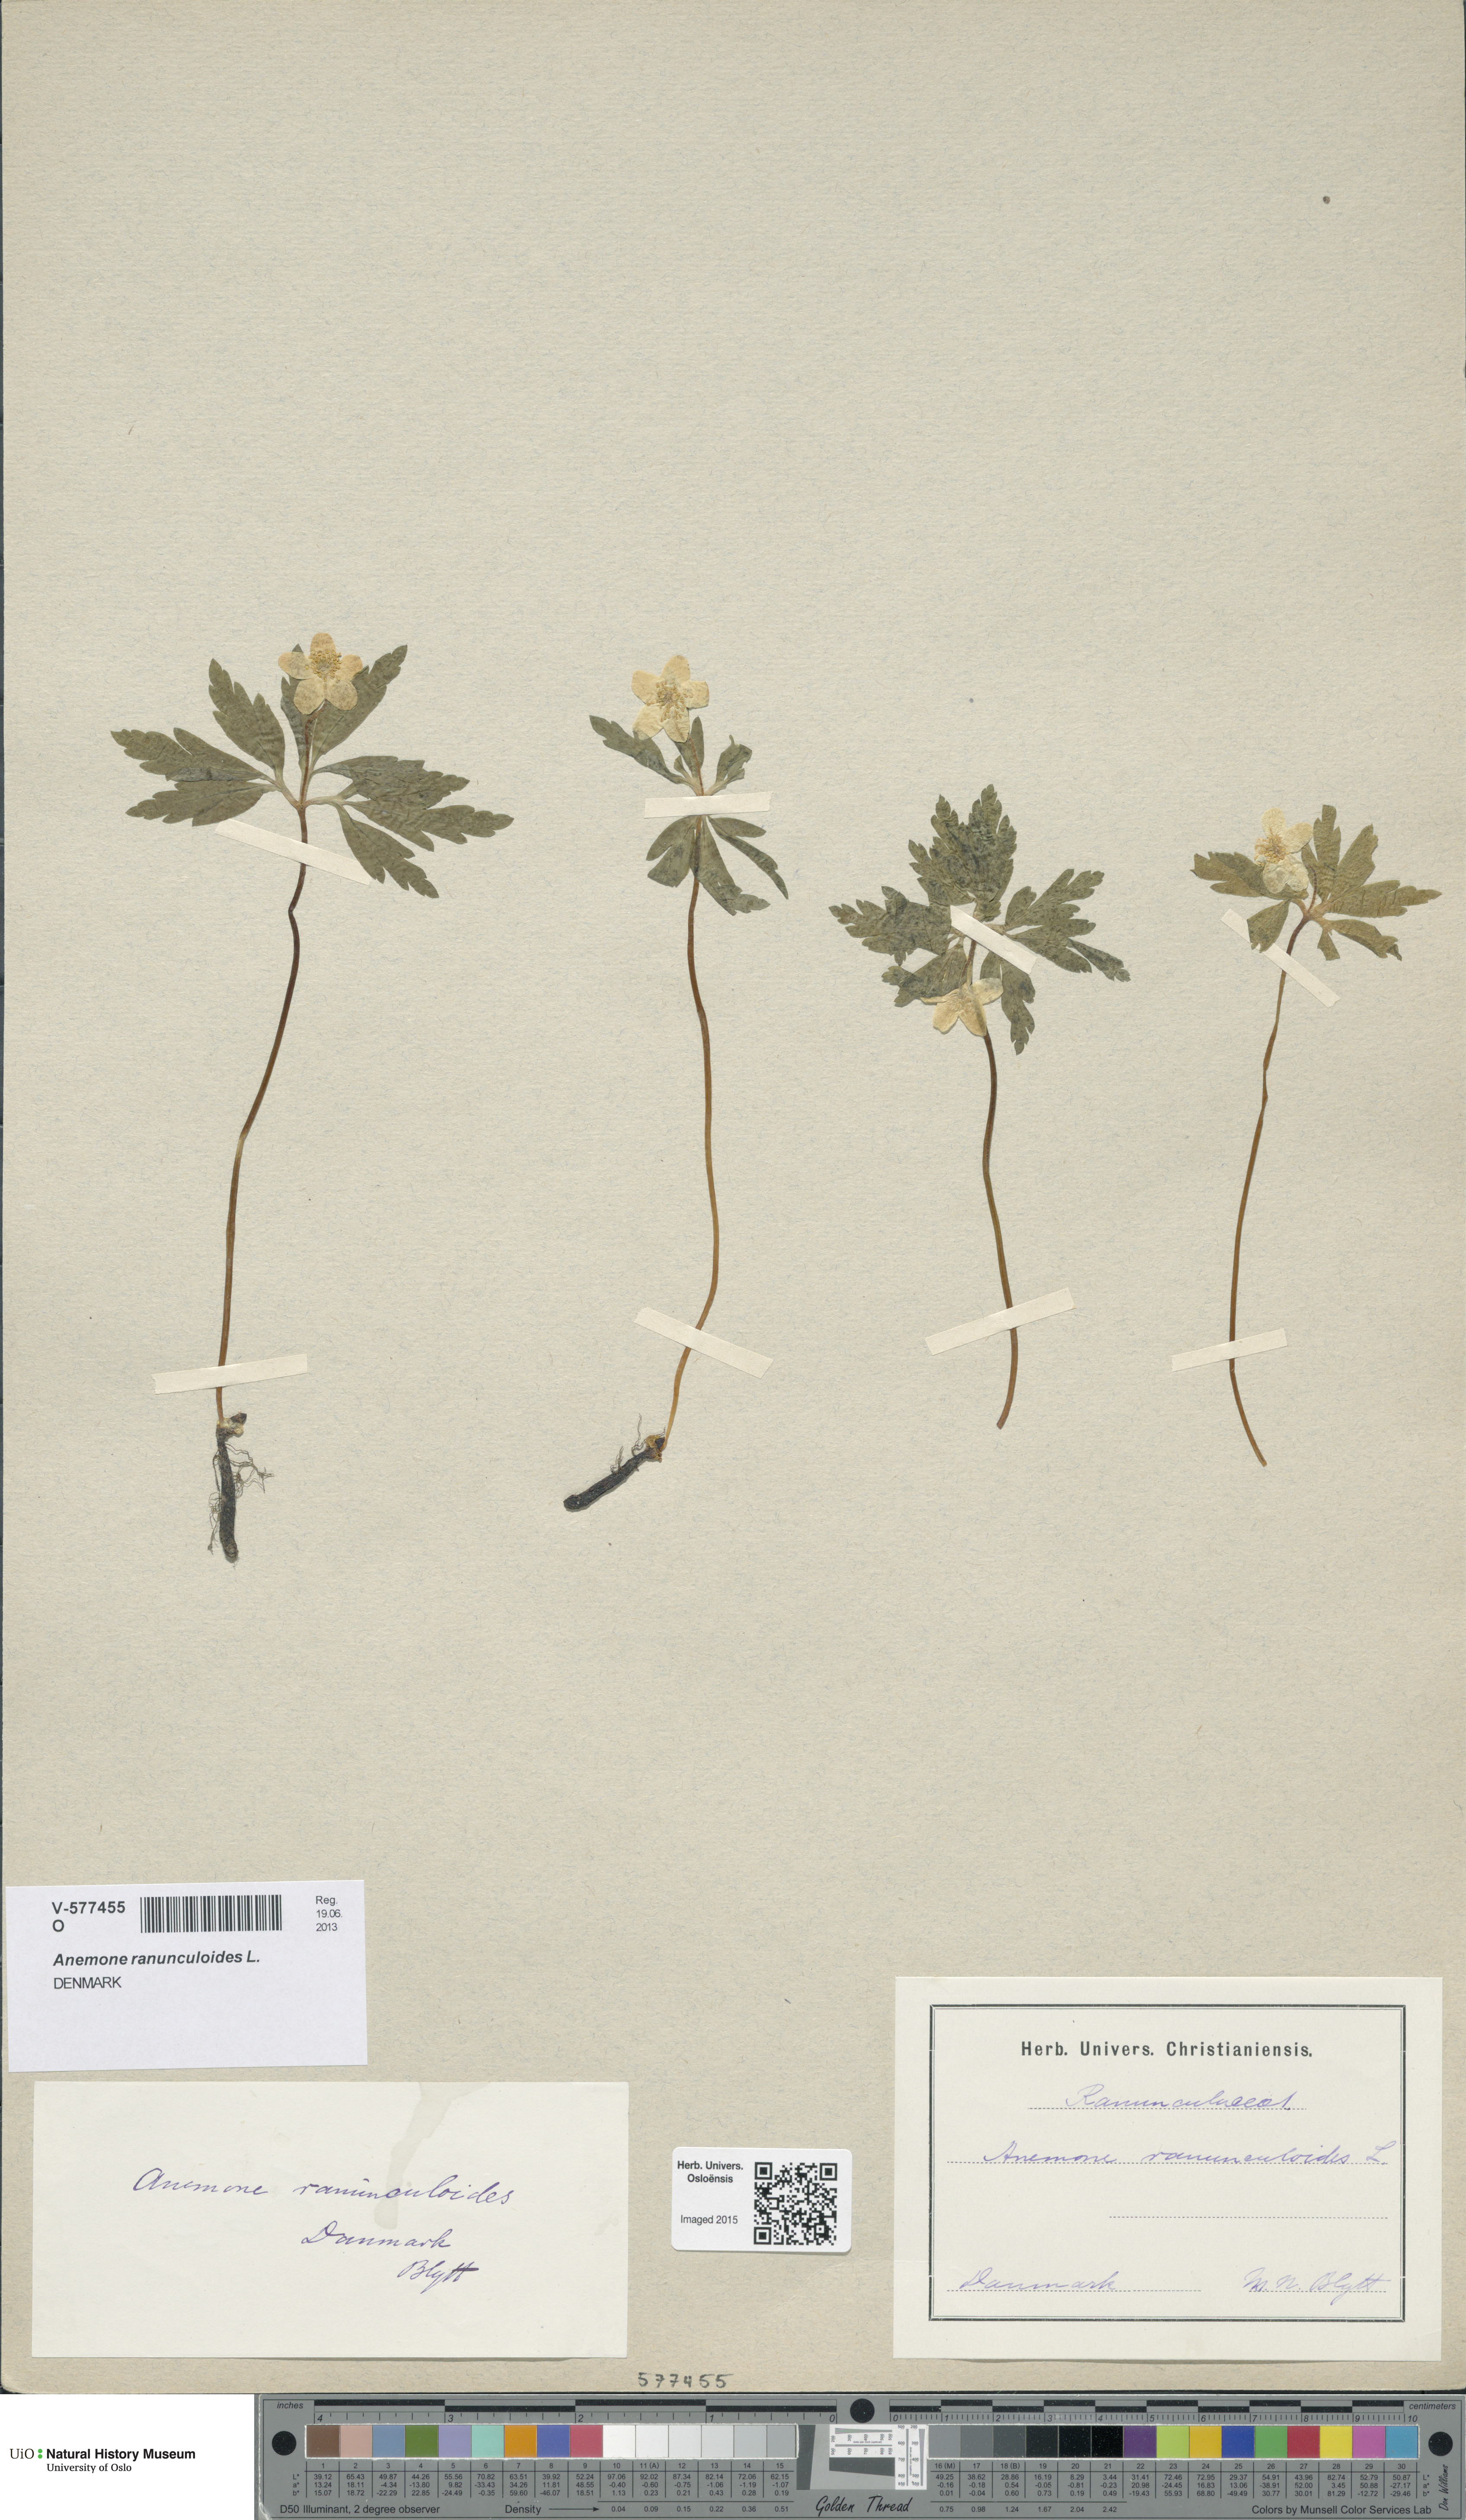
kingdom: Plantae
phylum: Tracheophyta
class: Magnoliopsida
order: Ranunculales
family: Ranunculaceae
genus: Anemone
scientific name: Anemone ranunculoides
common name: Yellow anemone
